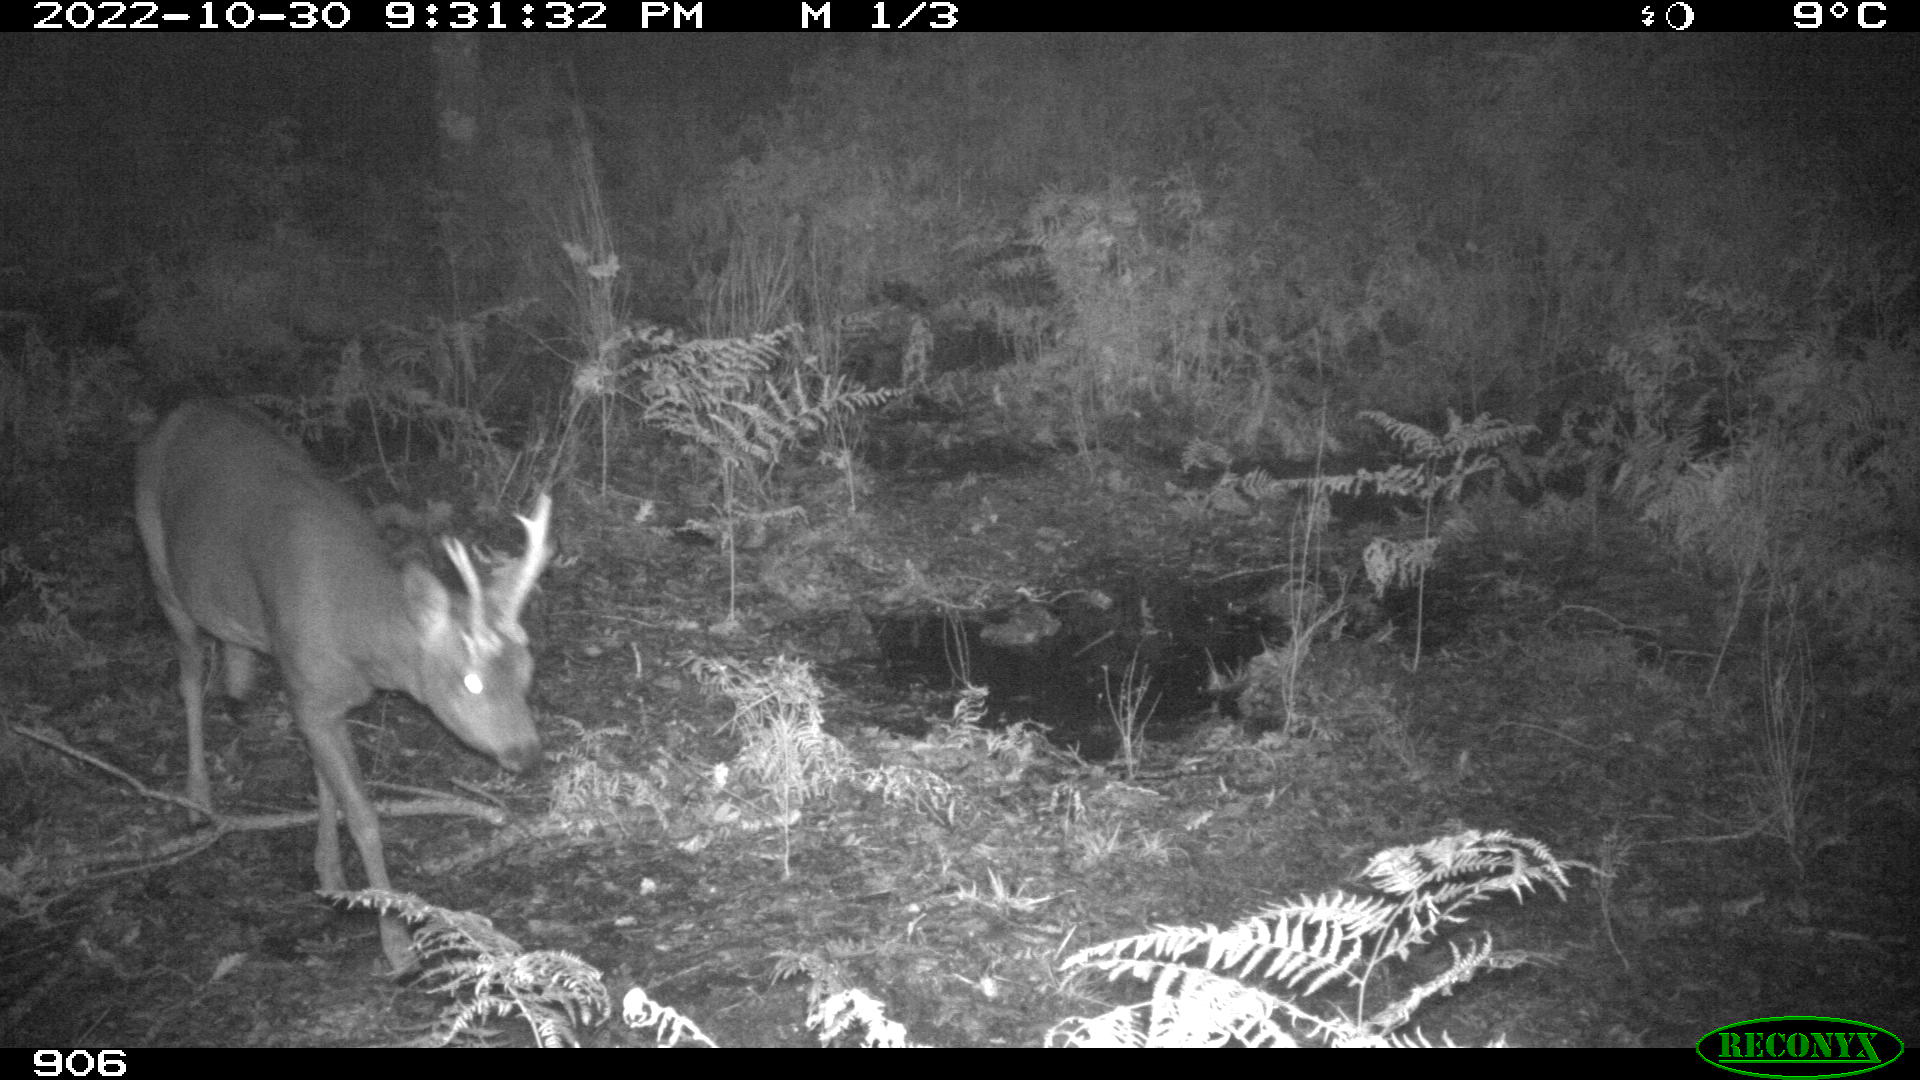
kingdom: Animalia
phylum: Chordata
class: Mammalia
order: Artiodactyla
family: Cervidae
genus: Capreolus
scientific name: Capreolus capreolus
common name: Western roe deer
